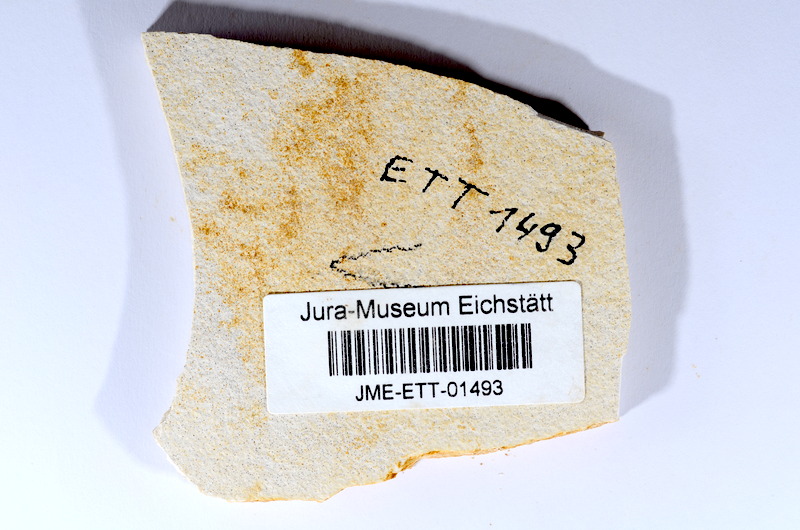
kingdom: Animalia
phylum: Chordata
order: Salmoniformes
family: Orthogonikleithridae
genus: Orthogonikleithrus
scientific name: Orthogonikleithrus hoelli
